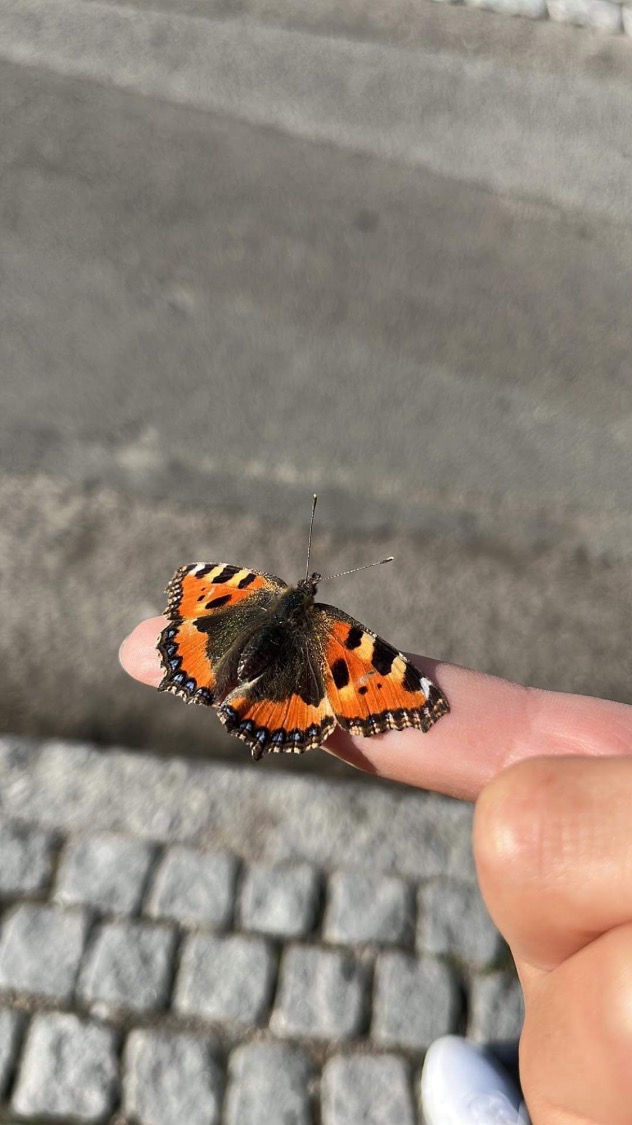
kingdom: Animalia
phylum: Arthropoda
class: Insecta
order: Lepidoptera
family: Nymphalidae
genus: Aglais
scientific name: Aglais urticae
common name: Nældens takvinge
